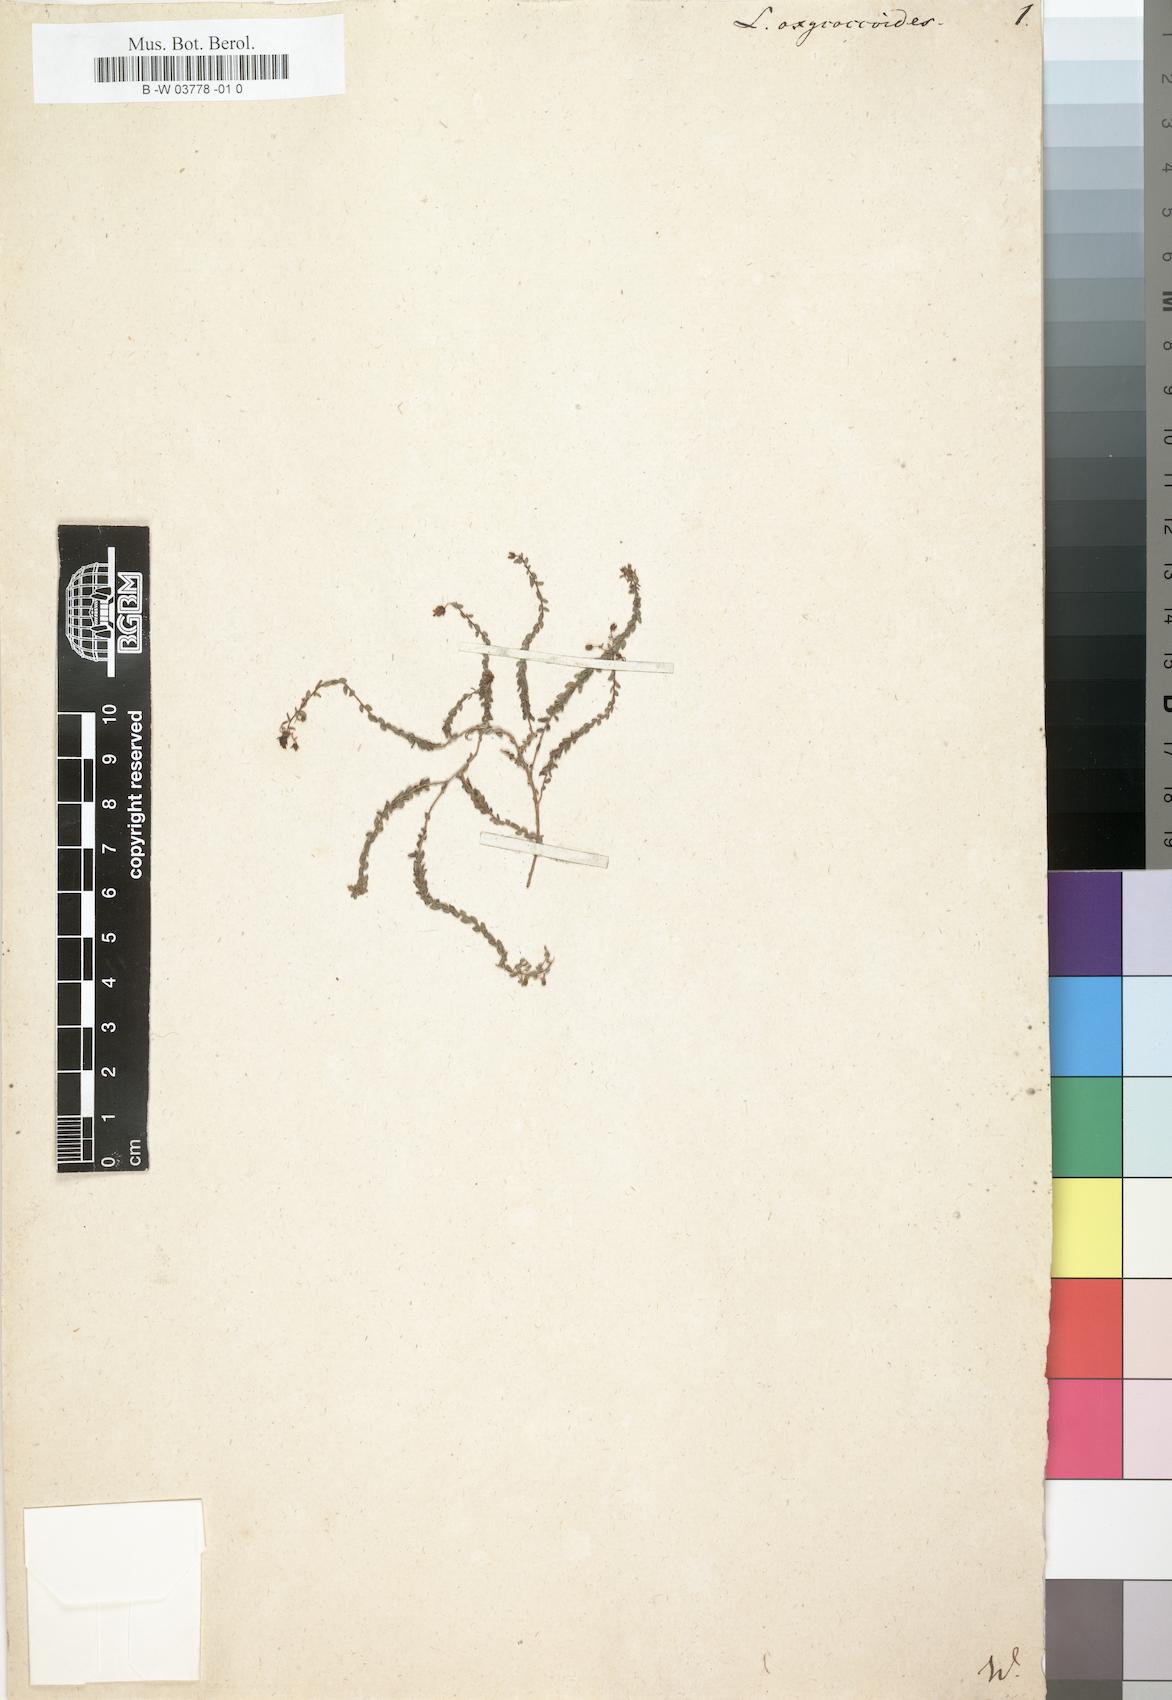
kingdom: Plantae
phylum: Tracheophyta
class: Magnoliopsida
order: Asterales
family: Campanulaceae
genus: Wahlenbergia
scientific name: Wahlenbergia
